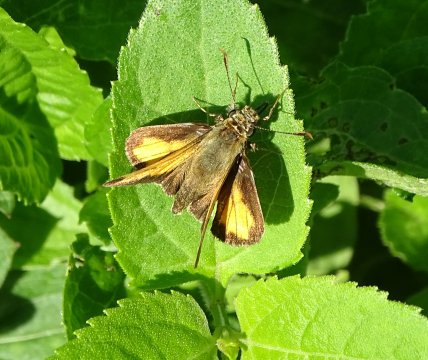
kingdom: Animalia
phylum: Arthropoda
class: Insecta
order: Lepidoptera
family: Hesperiidae
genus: Lon
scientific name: Lon hobomok
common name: Hobomok Skipper
